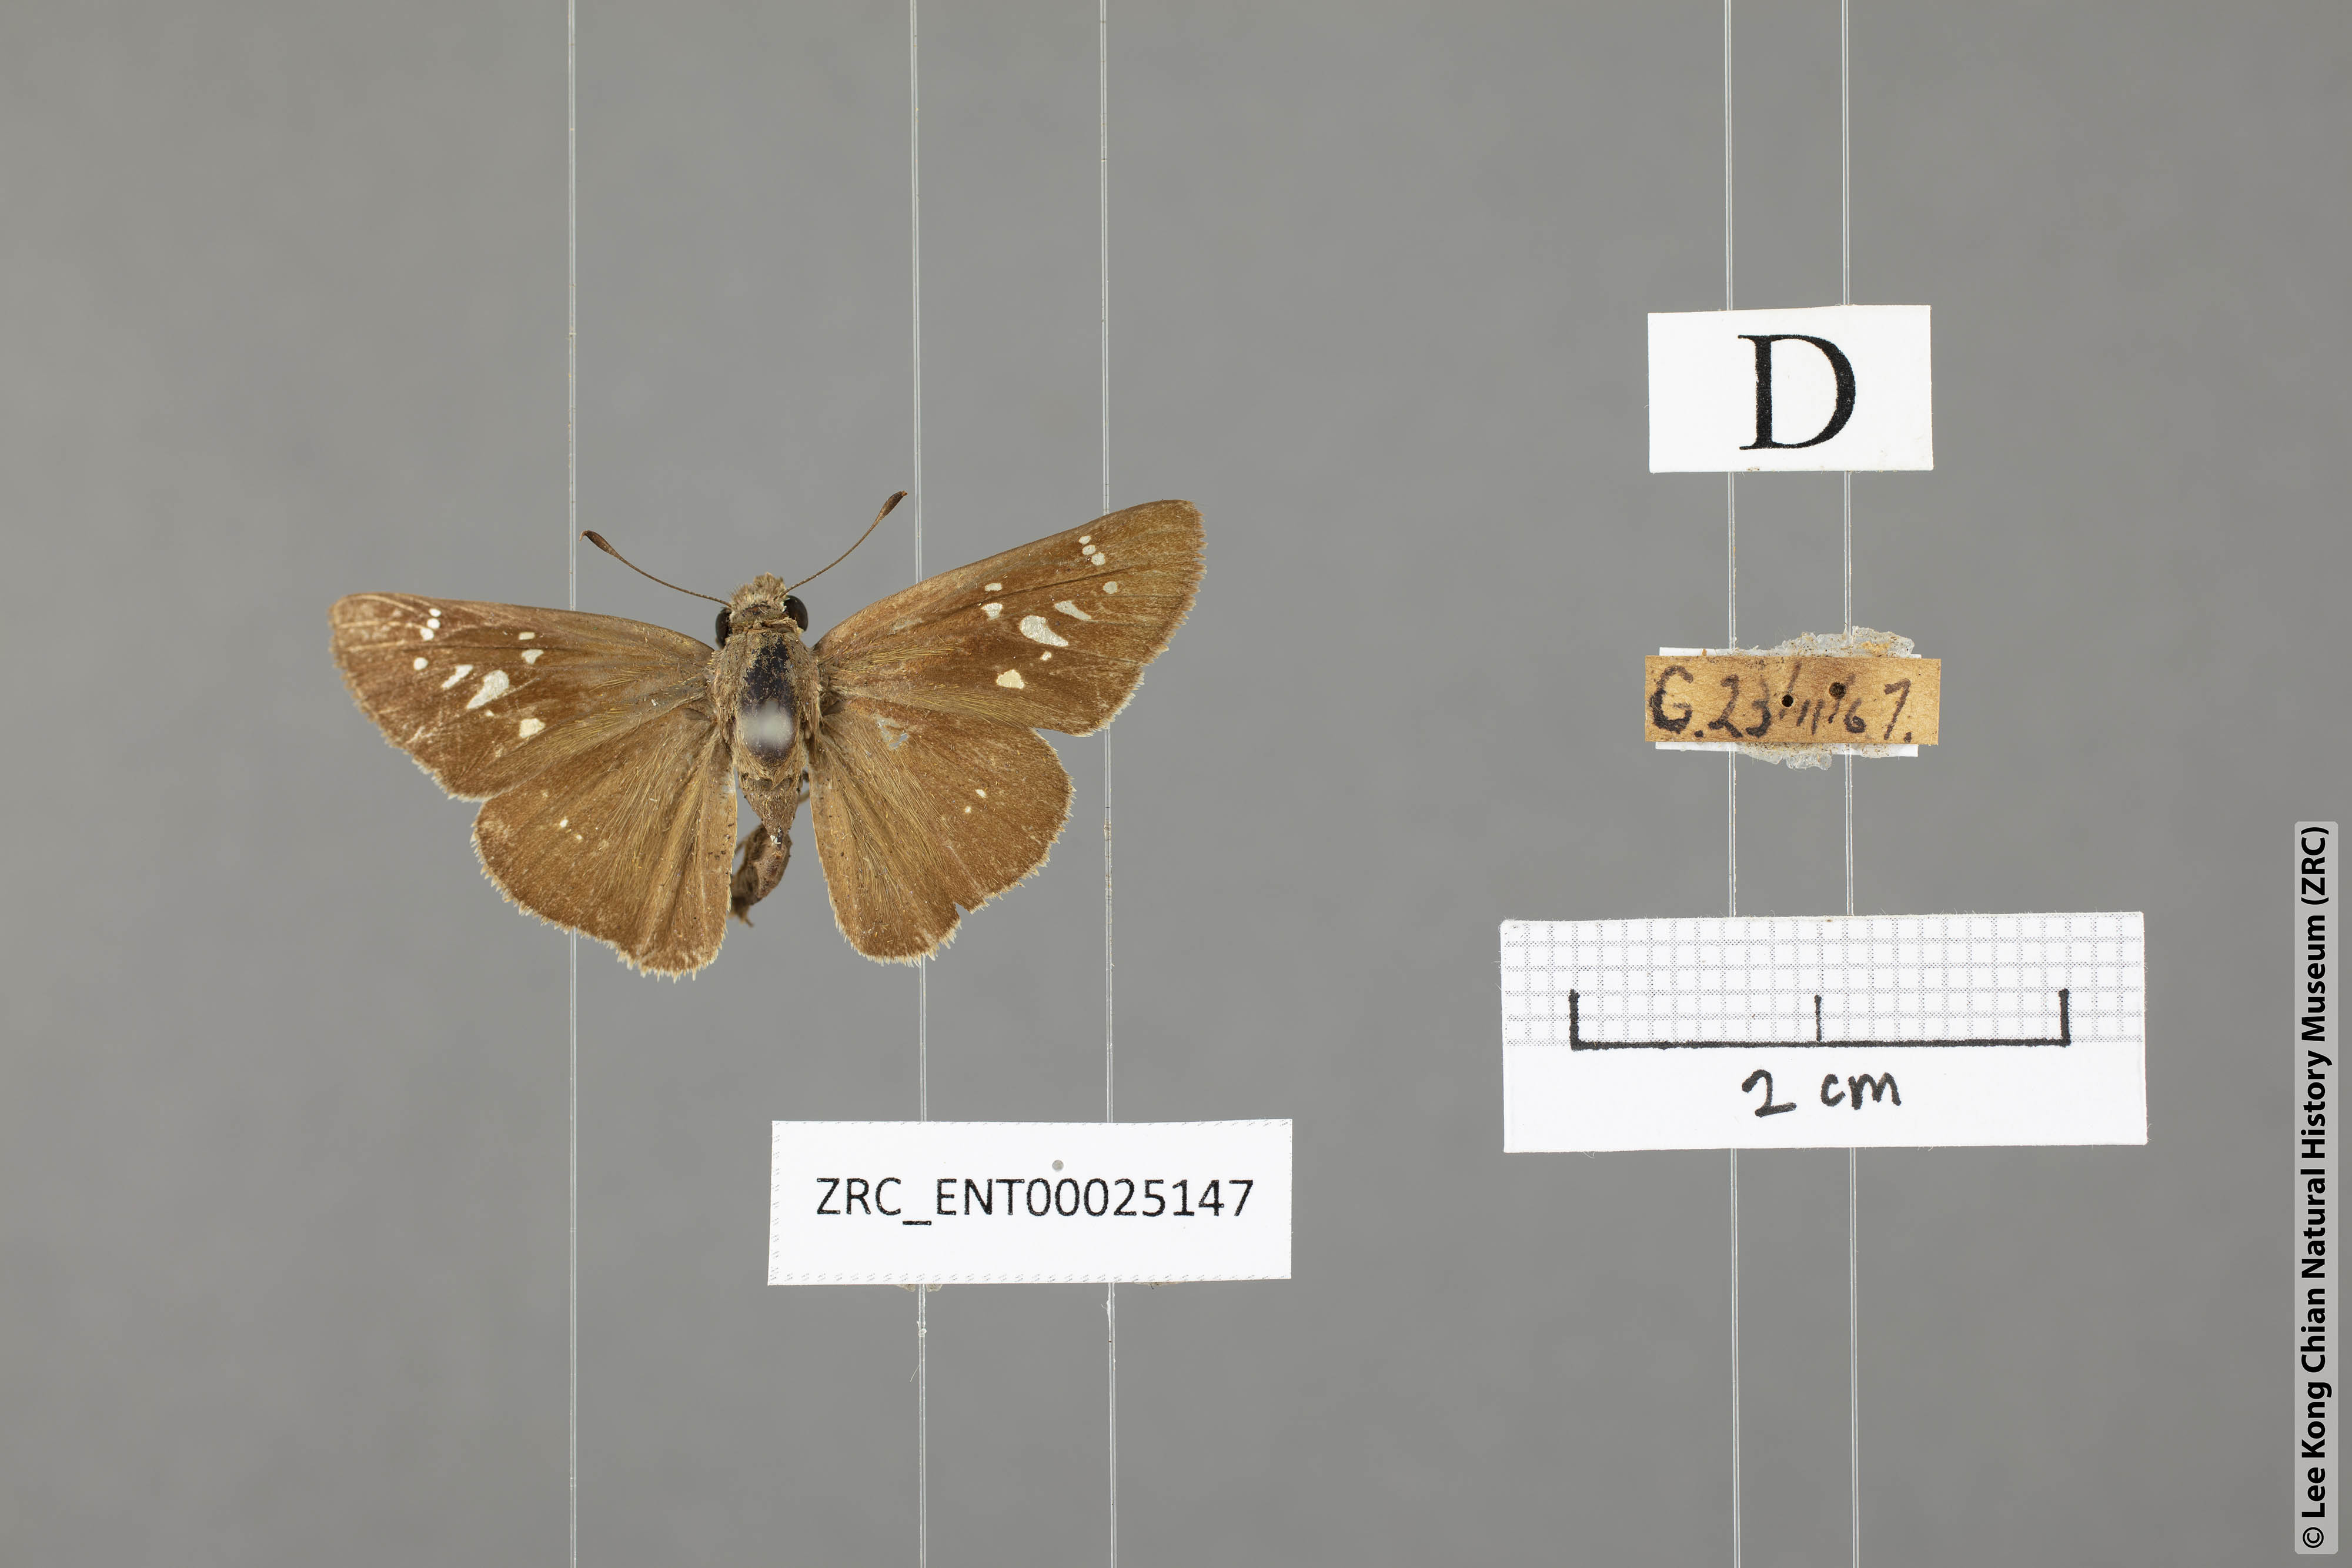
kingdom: Animalia
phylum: Arthropoda
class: Insecta
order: Lepidoptera
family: Hesperiidae
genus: Pelopidas
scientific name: Pelopidas mathias
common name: Black-branded swift
